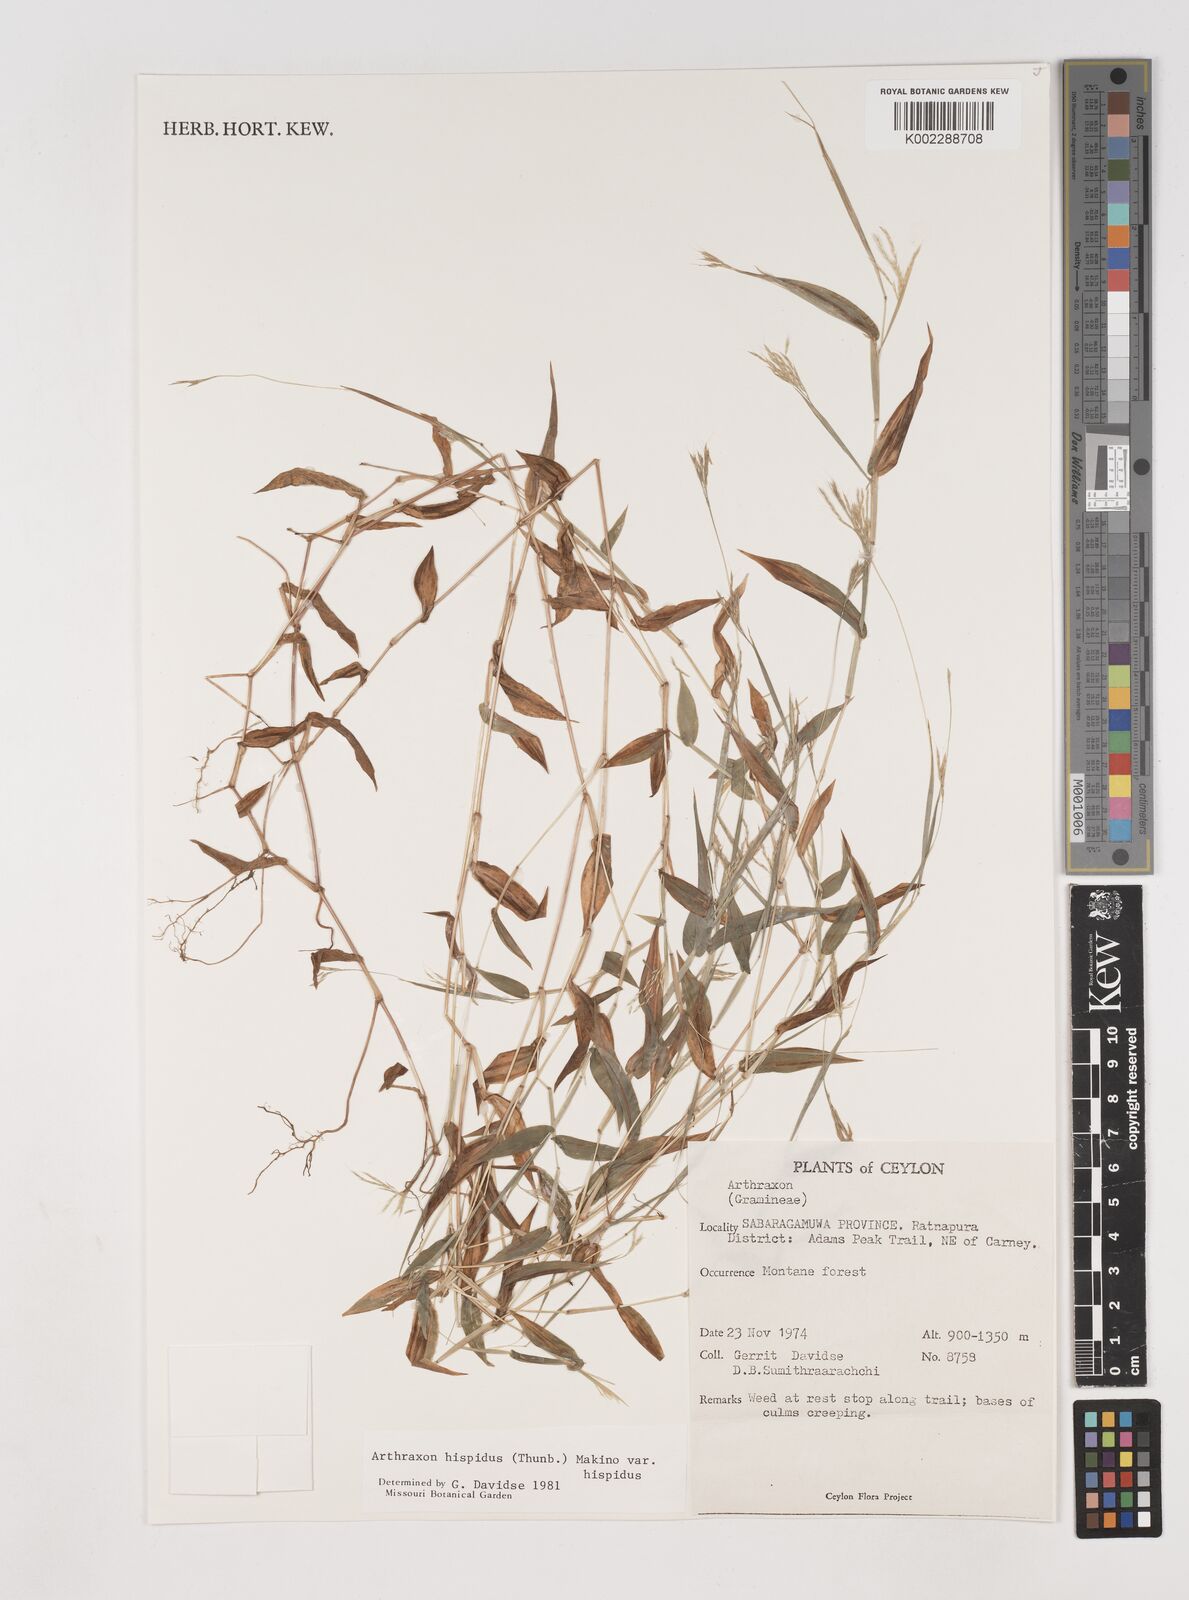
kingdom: Plantae
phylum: Tracheophyta
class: Liliopsida
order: Poales
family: Poaceae
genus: Arthraxon
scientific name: Arthraxon hispidus
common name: Small carpgrass
